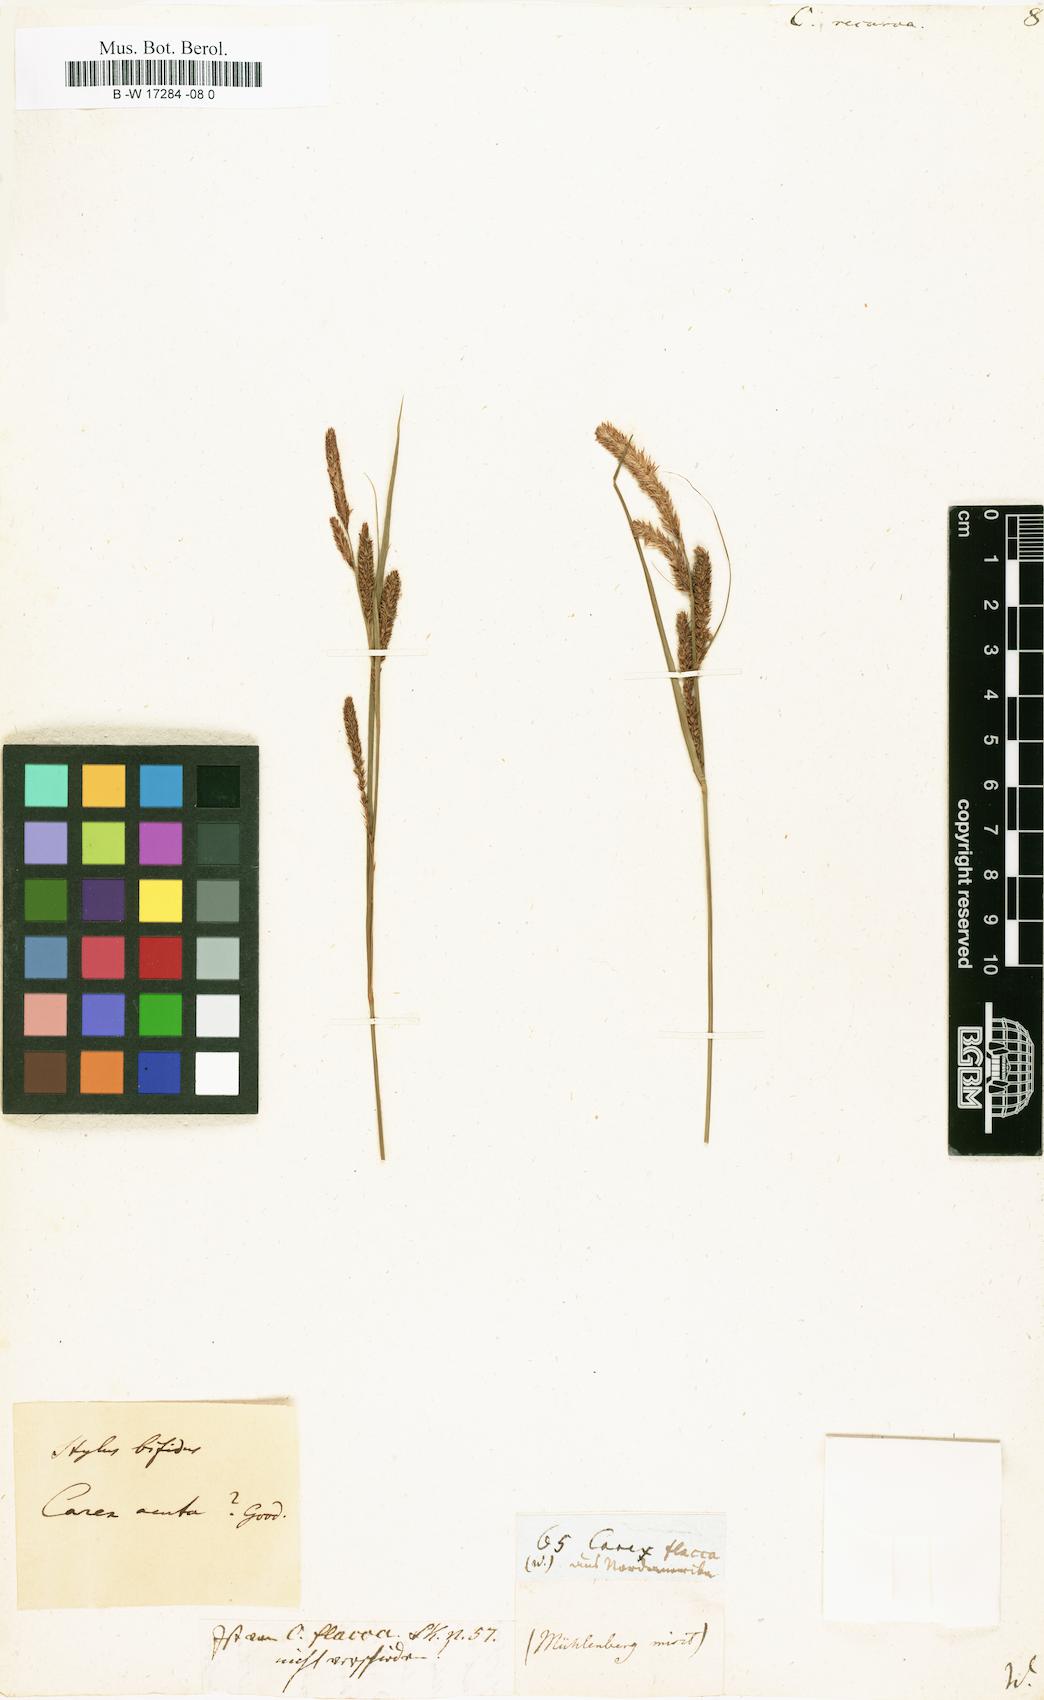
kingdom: Plantae
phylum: Tracheophyta
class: Liliopsida
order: Poales
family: Cyperaceae
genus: Carex
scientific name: Carex
